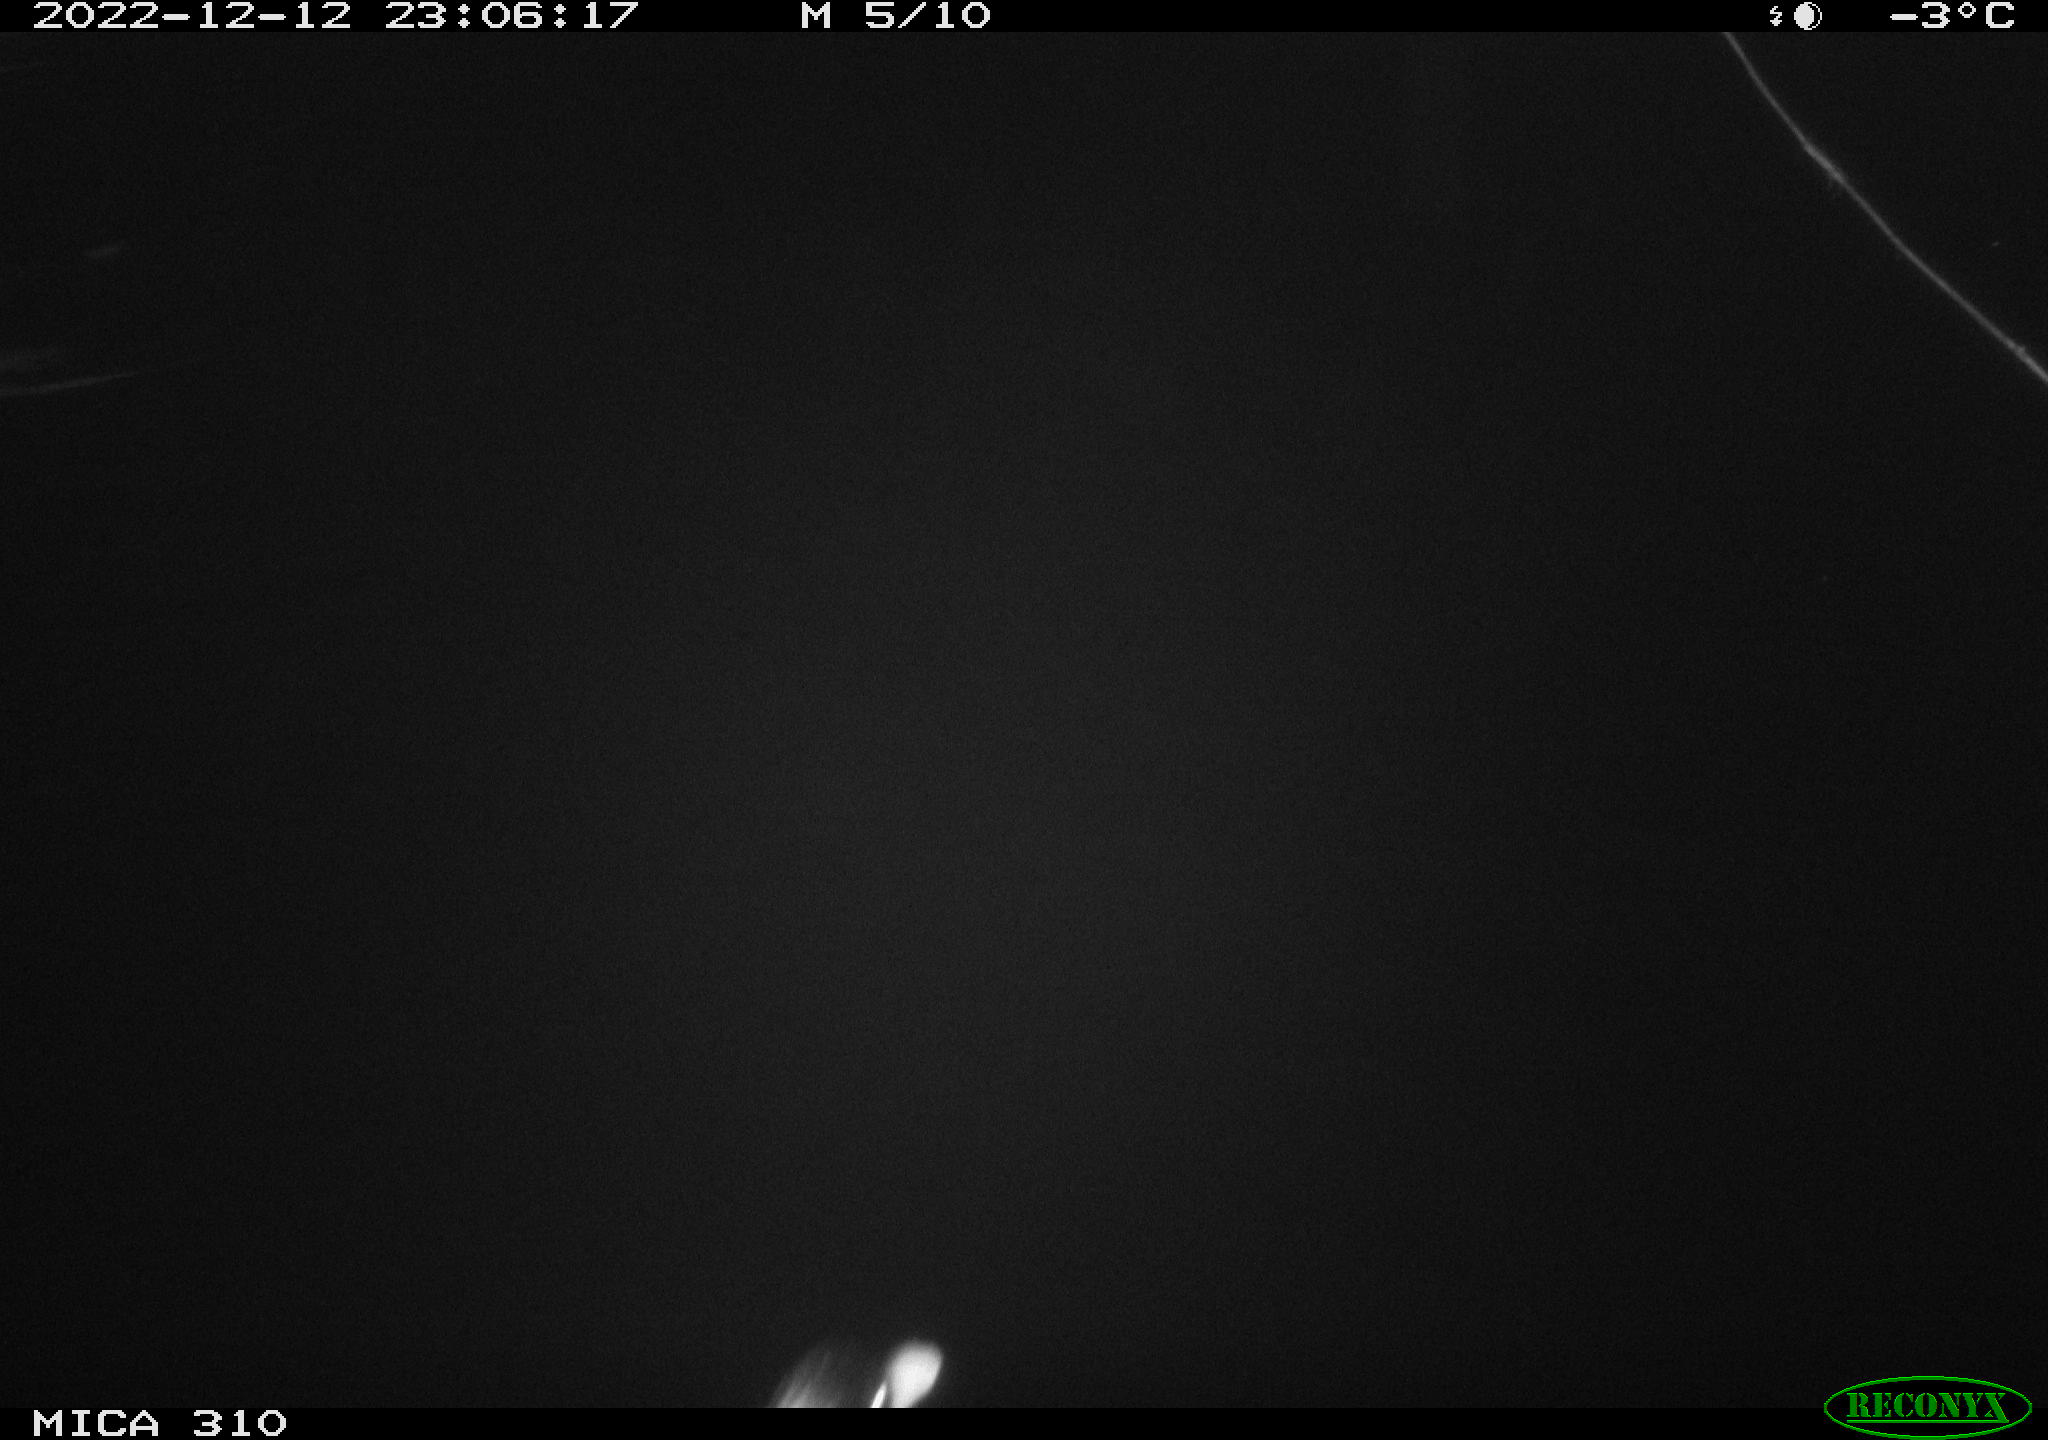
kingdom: Animalia
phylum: Chordata
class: Aves
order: Anseriformes
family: Anatidae
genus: Anas
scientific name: Anas
